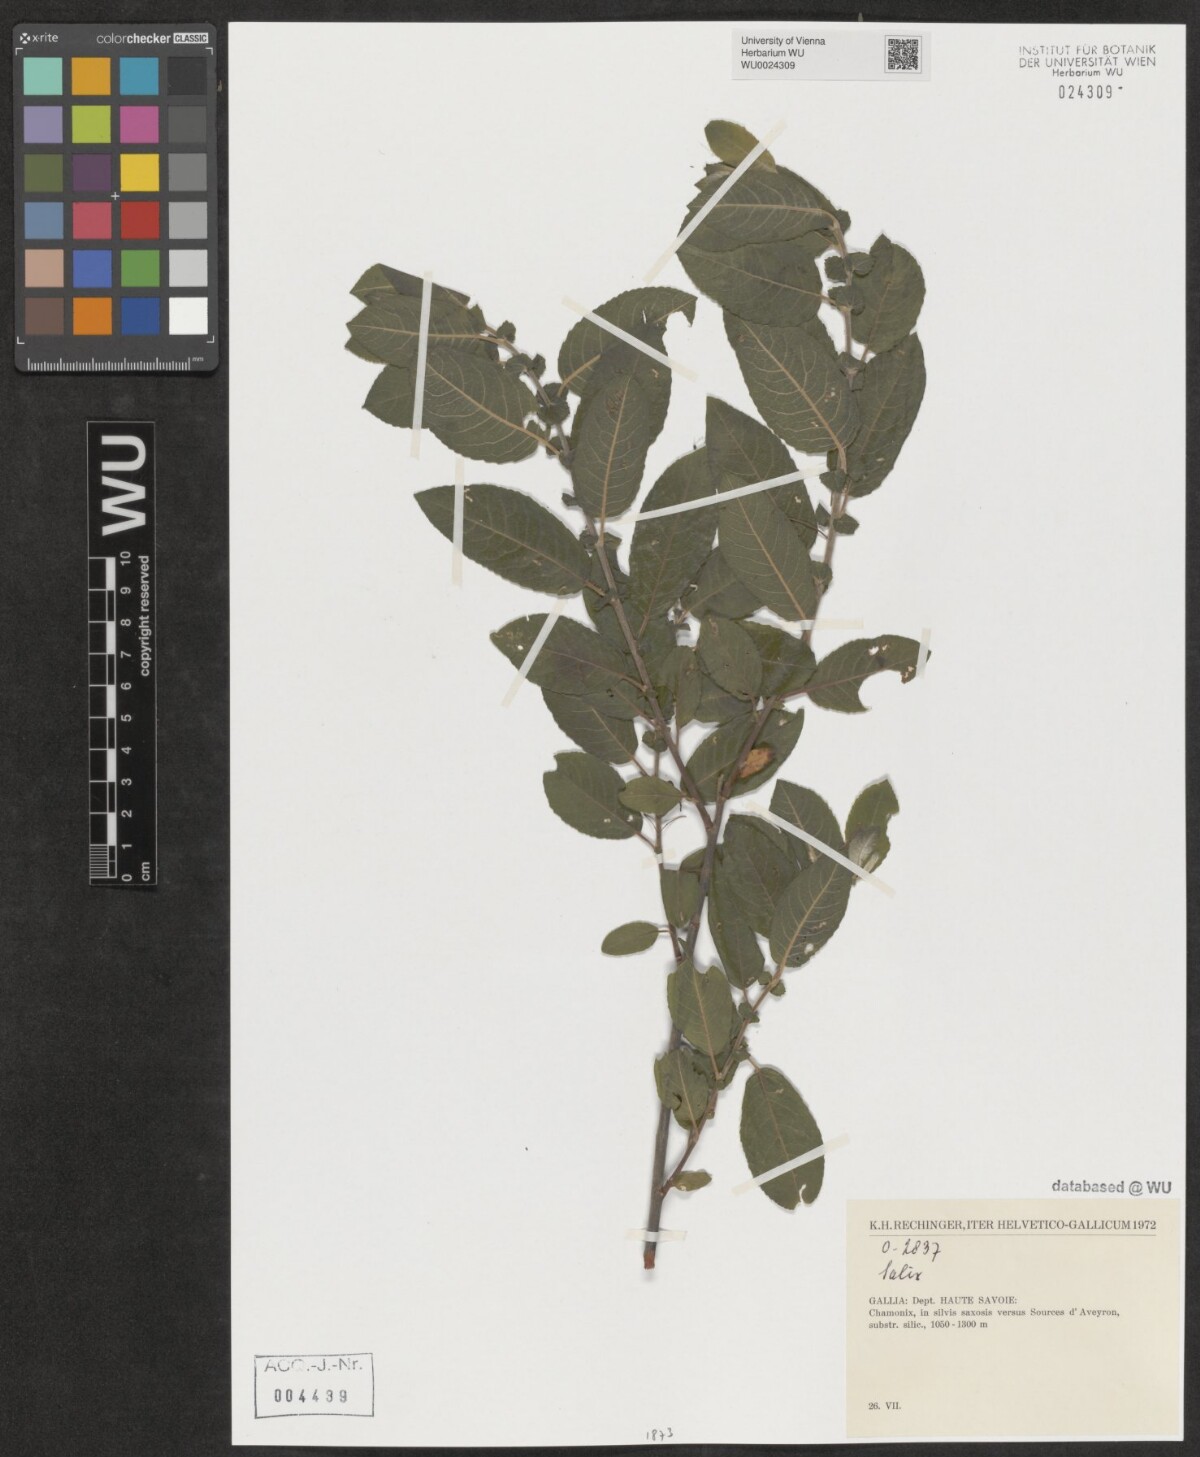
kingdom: Plantae
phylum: Tracheophyta
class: Magnoliopsida
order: Malpighiales
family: Salicaceae
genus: Salix
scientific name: Salix
